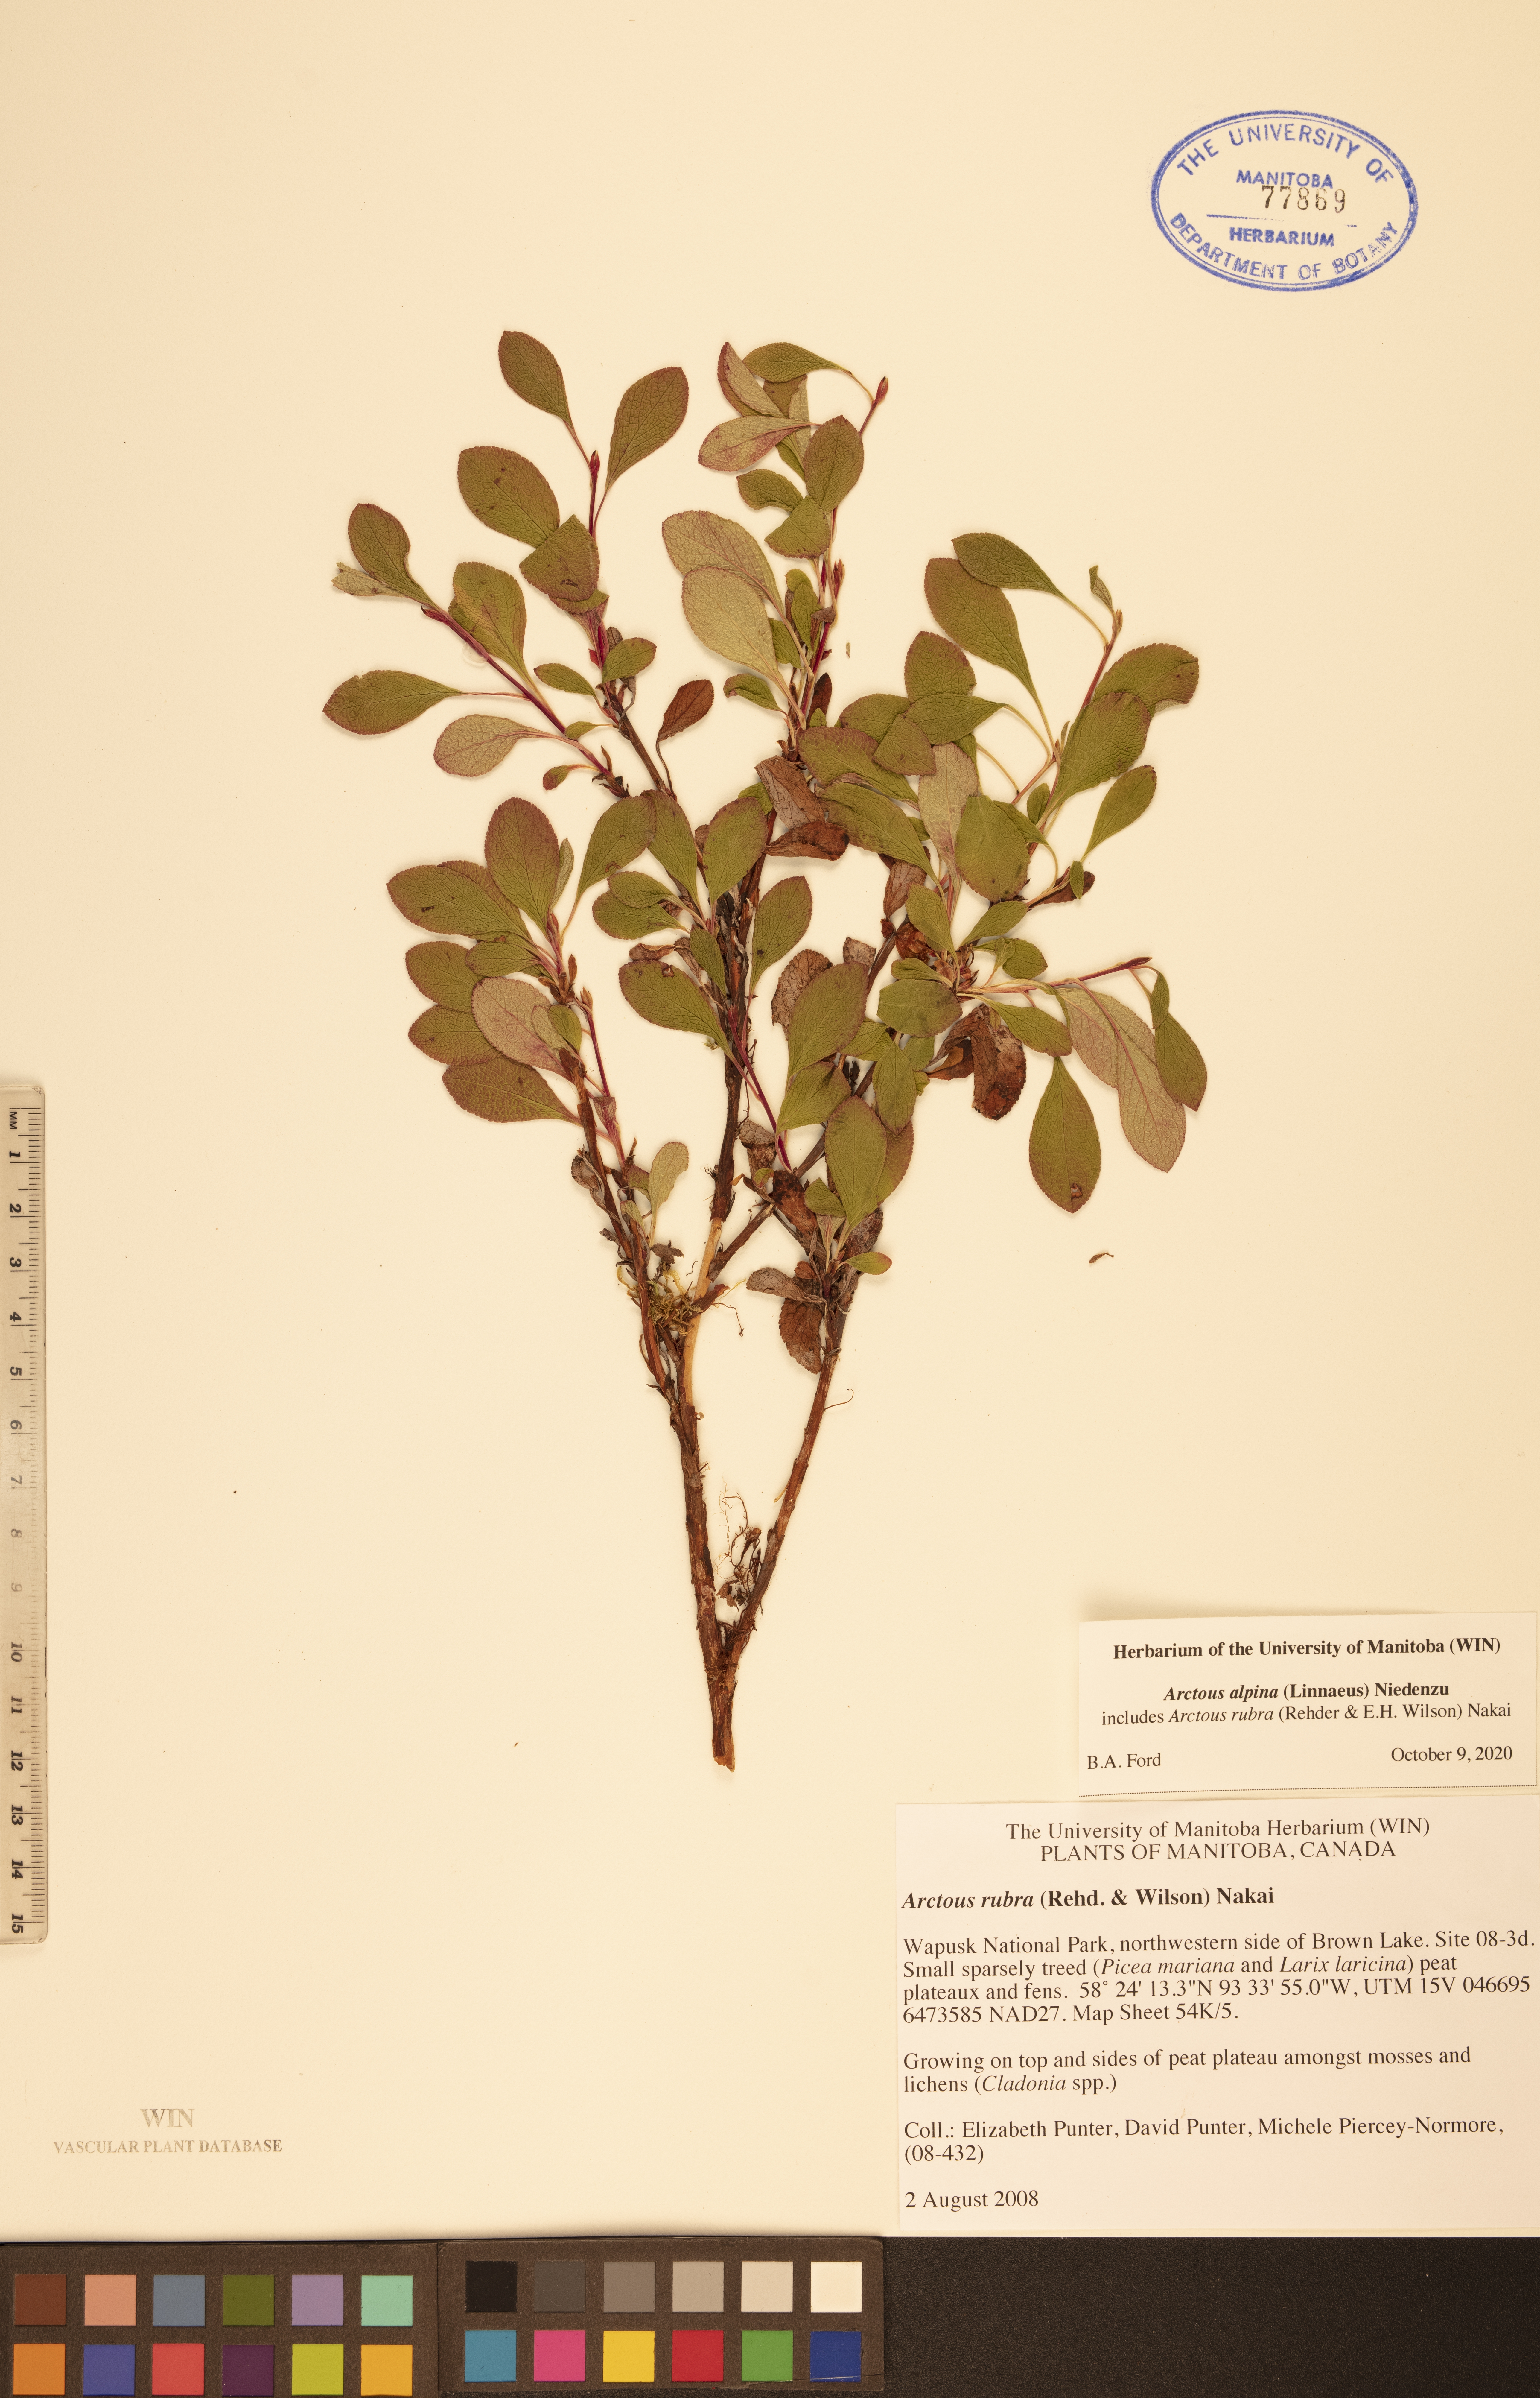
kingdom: Plantae
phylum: Tracheophyta
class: Magnoliopsida
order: Ericales
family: Ericaceae
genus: Arctostaphylos
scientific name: Arctostaphylos alpinus
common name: Alpine bearberry
